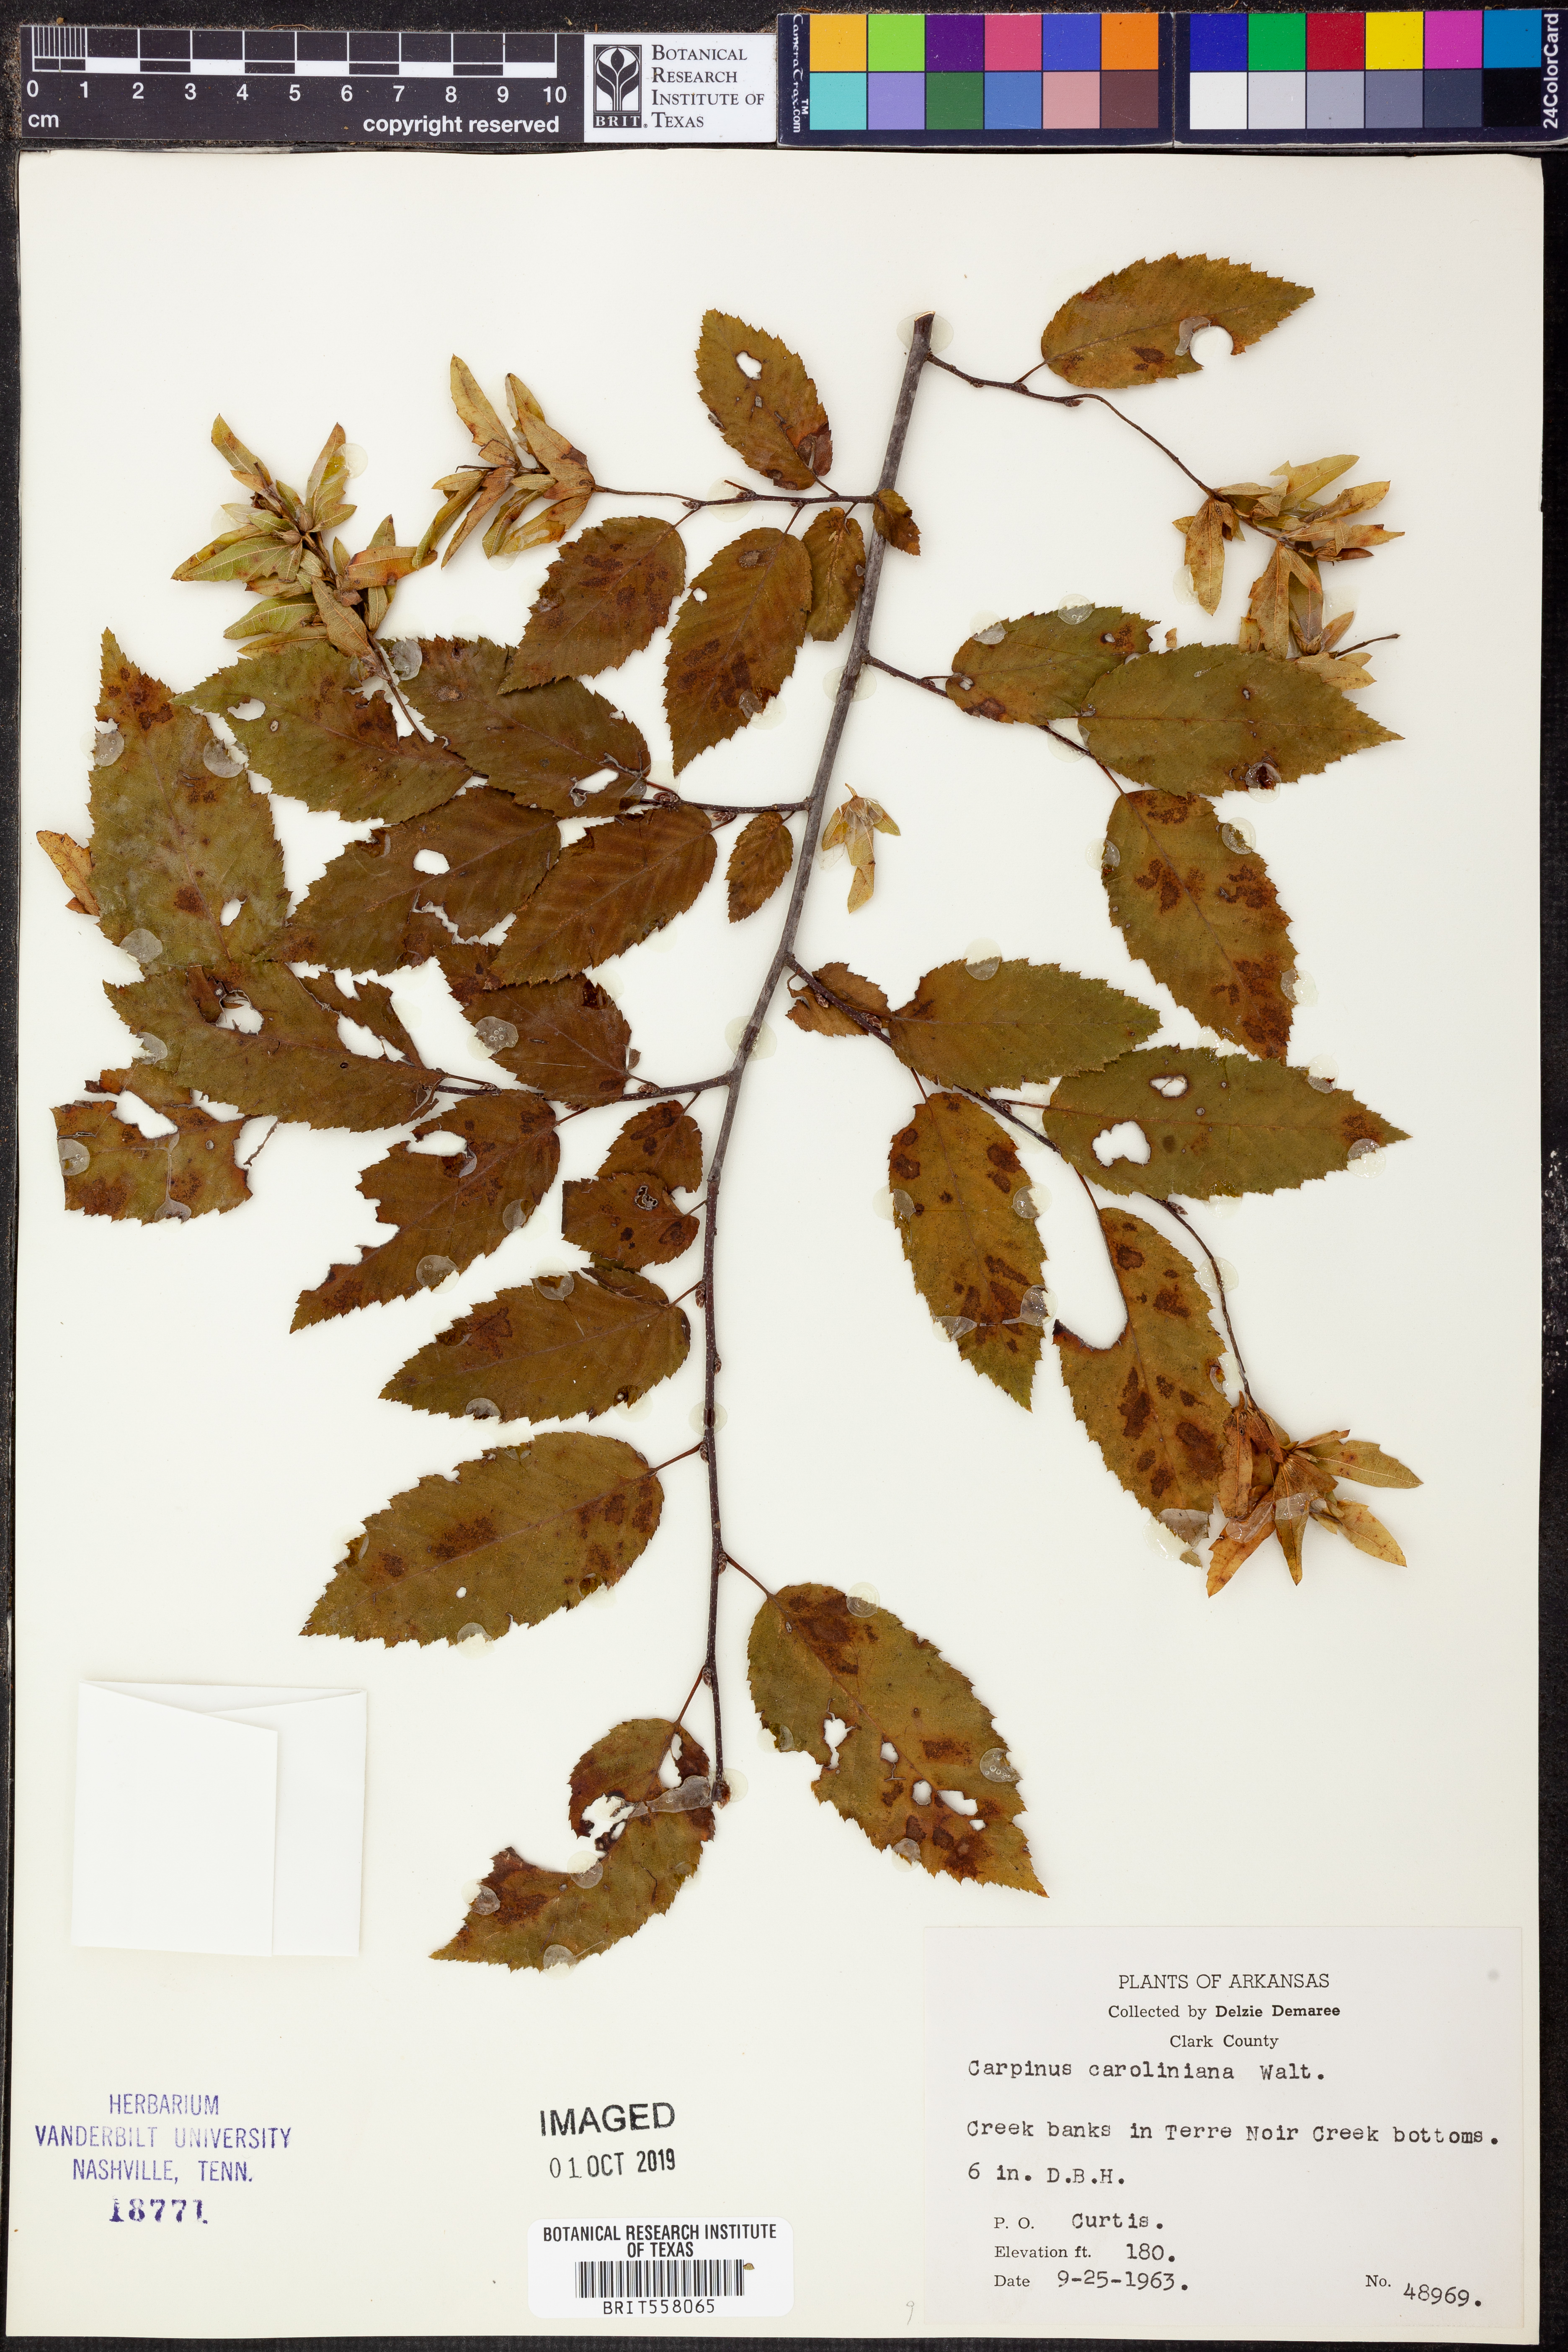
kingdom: Plantae
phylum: Tracheophyta
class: Magnoliopsida
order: Fagales
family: Betulaceae
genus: Carpinus
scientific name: Carpinus caroliniana
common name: American hornbeam
